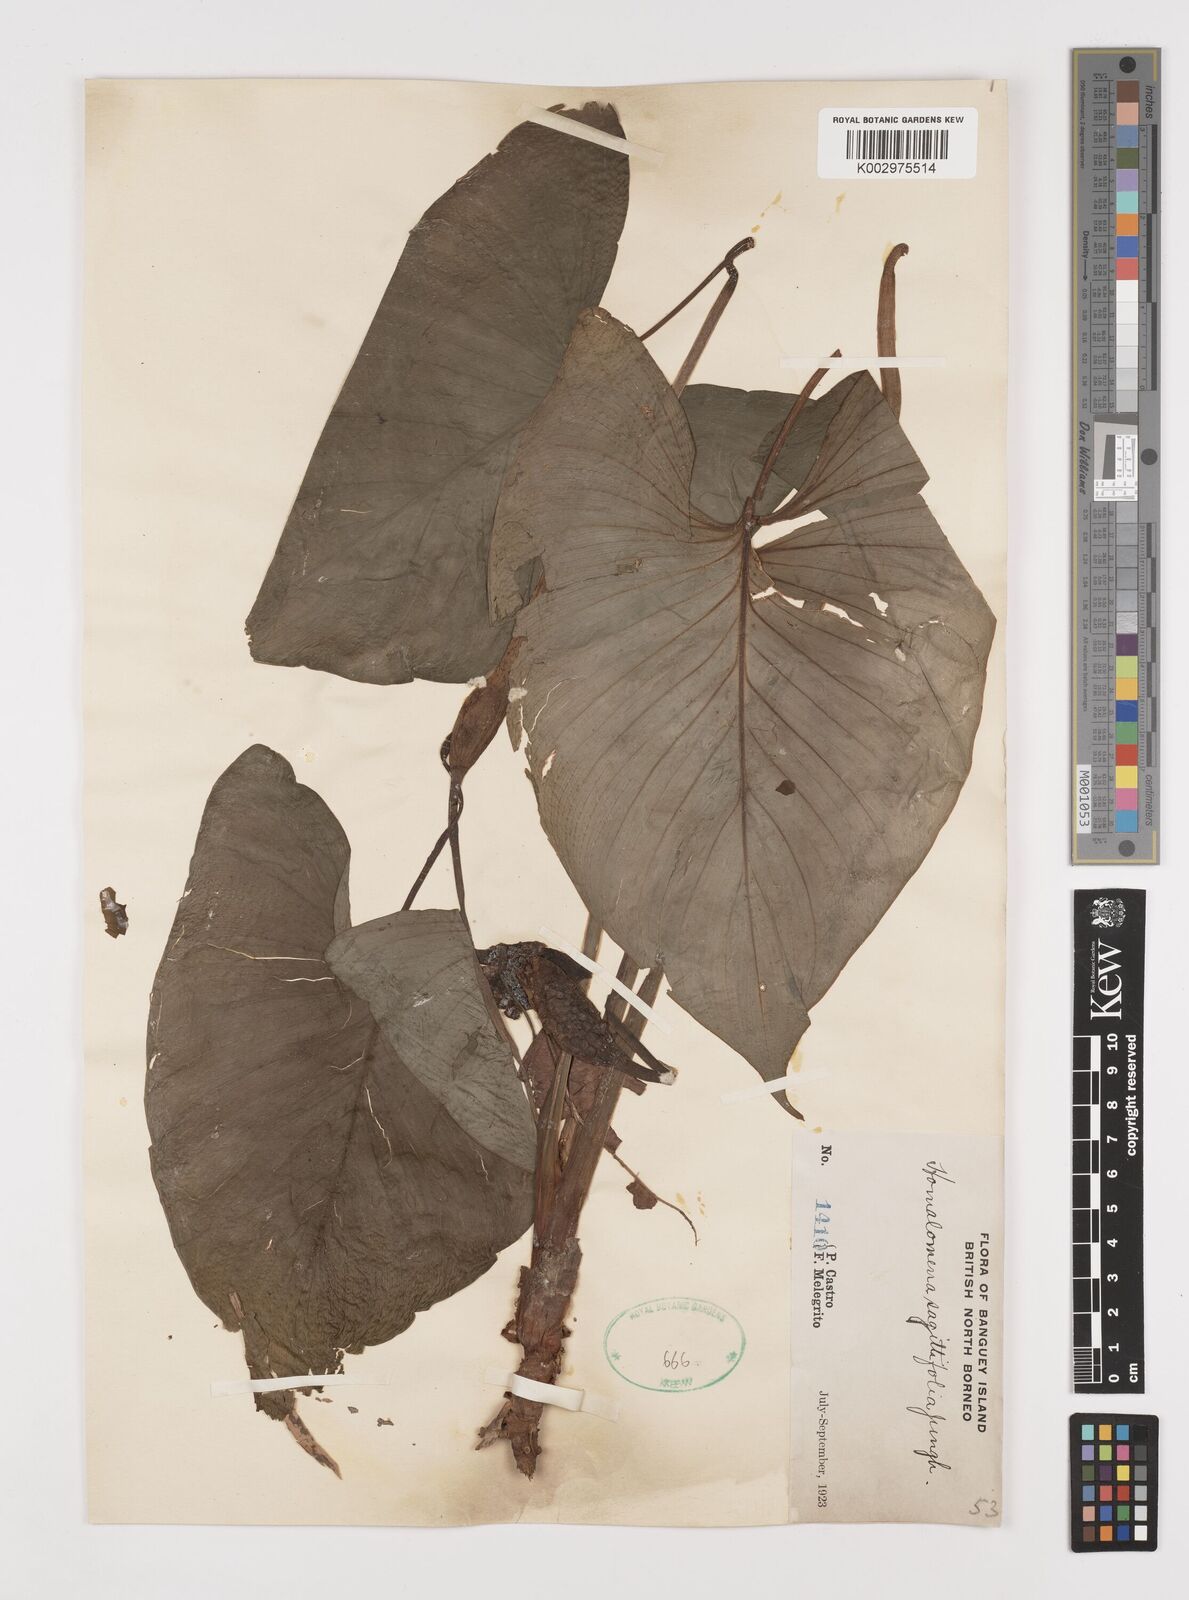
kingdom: Plantae
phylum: Tracheophyta
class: Liliopsida
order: Alismatales
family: Araceae
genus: Homalomena
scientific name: Homalomena rostrata
